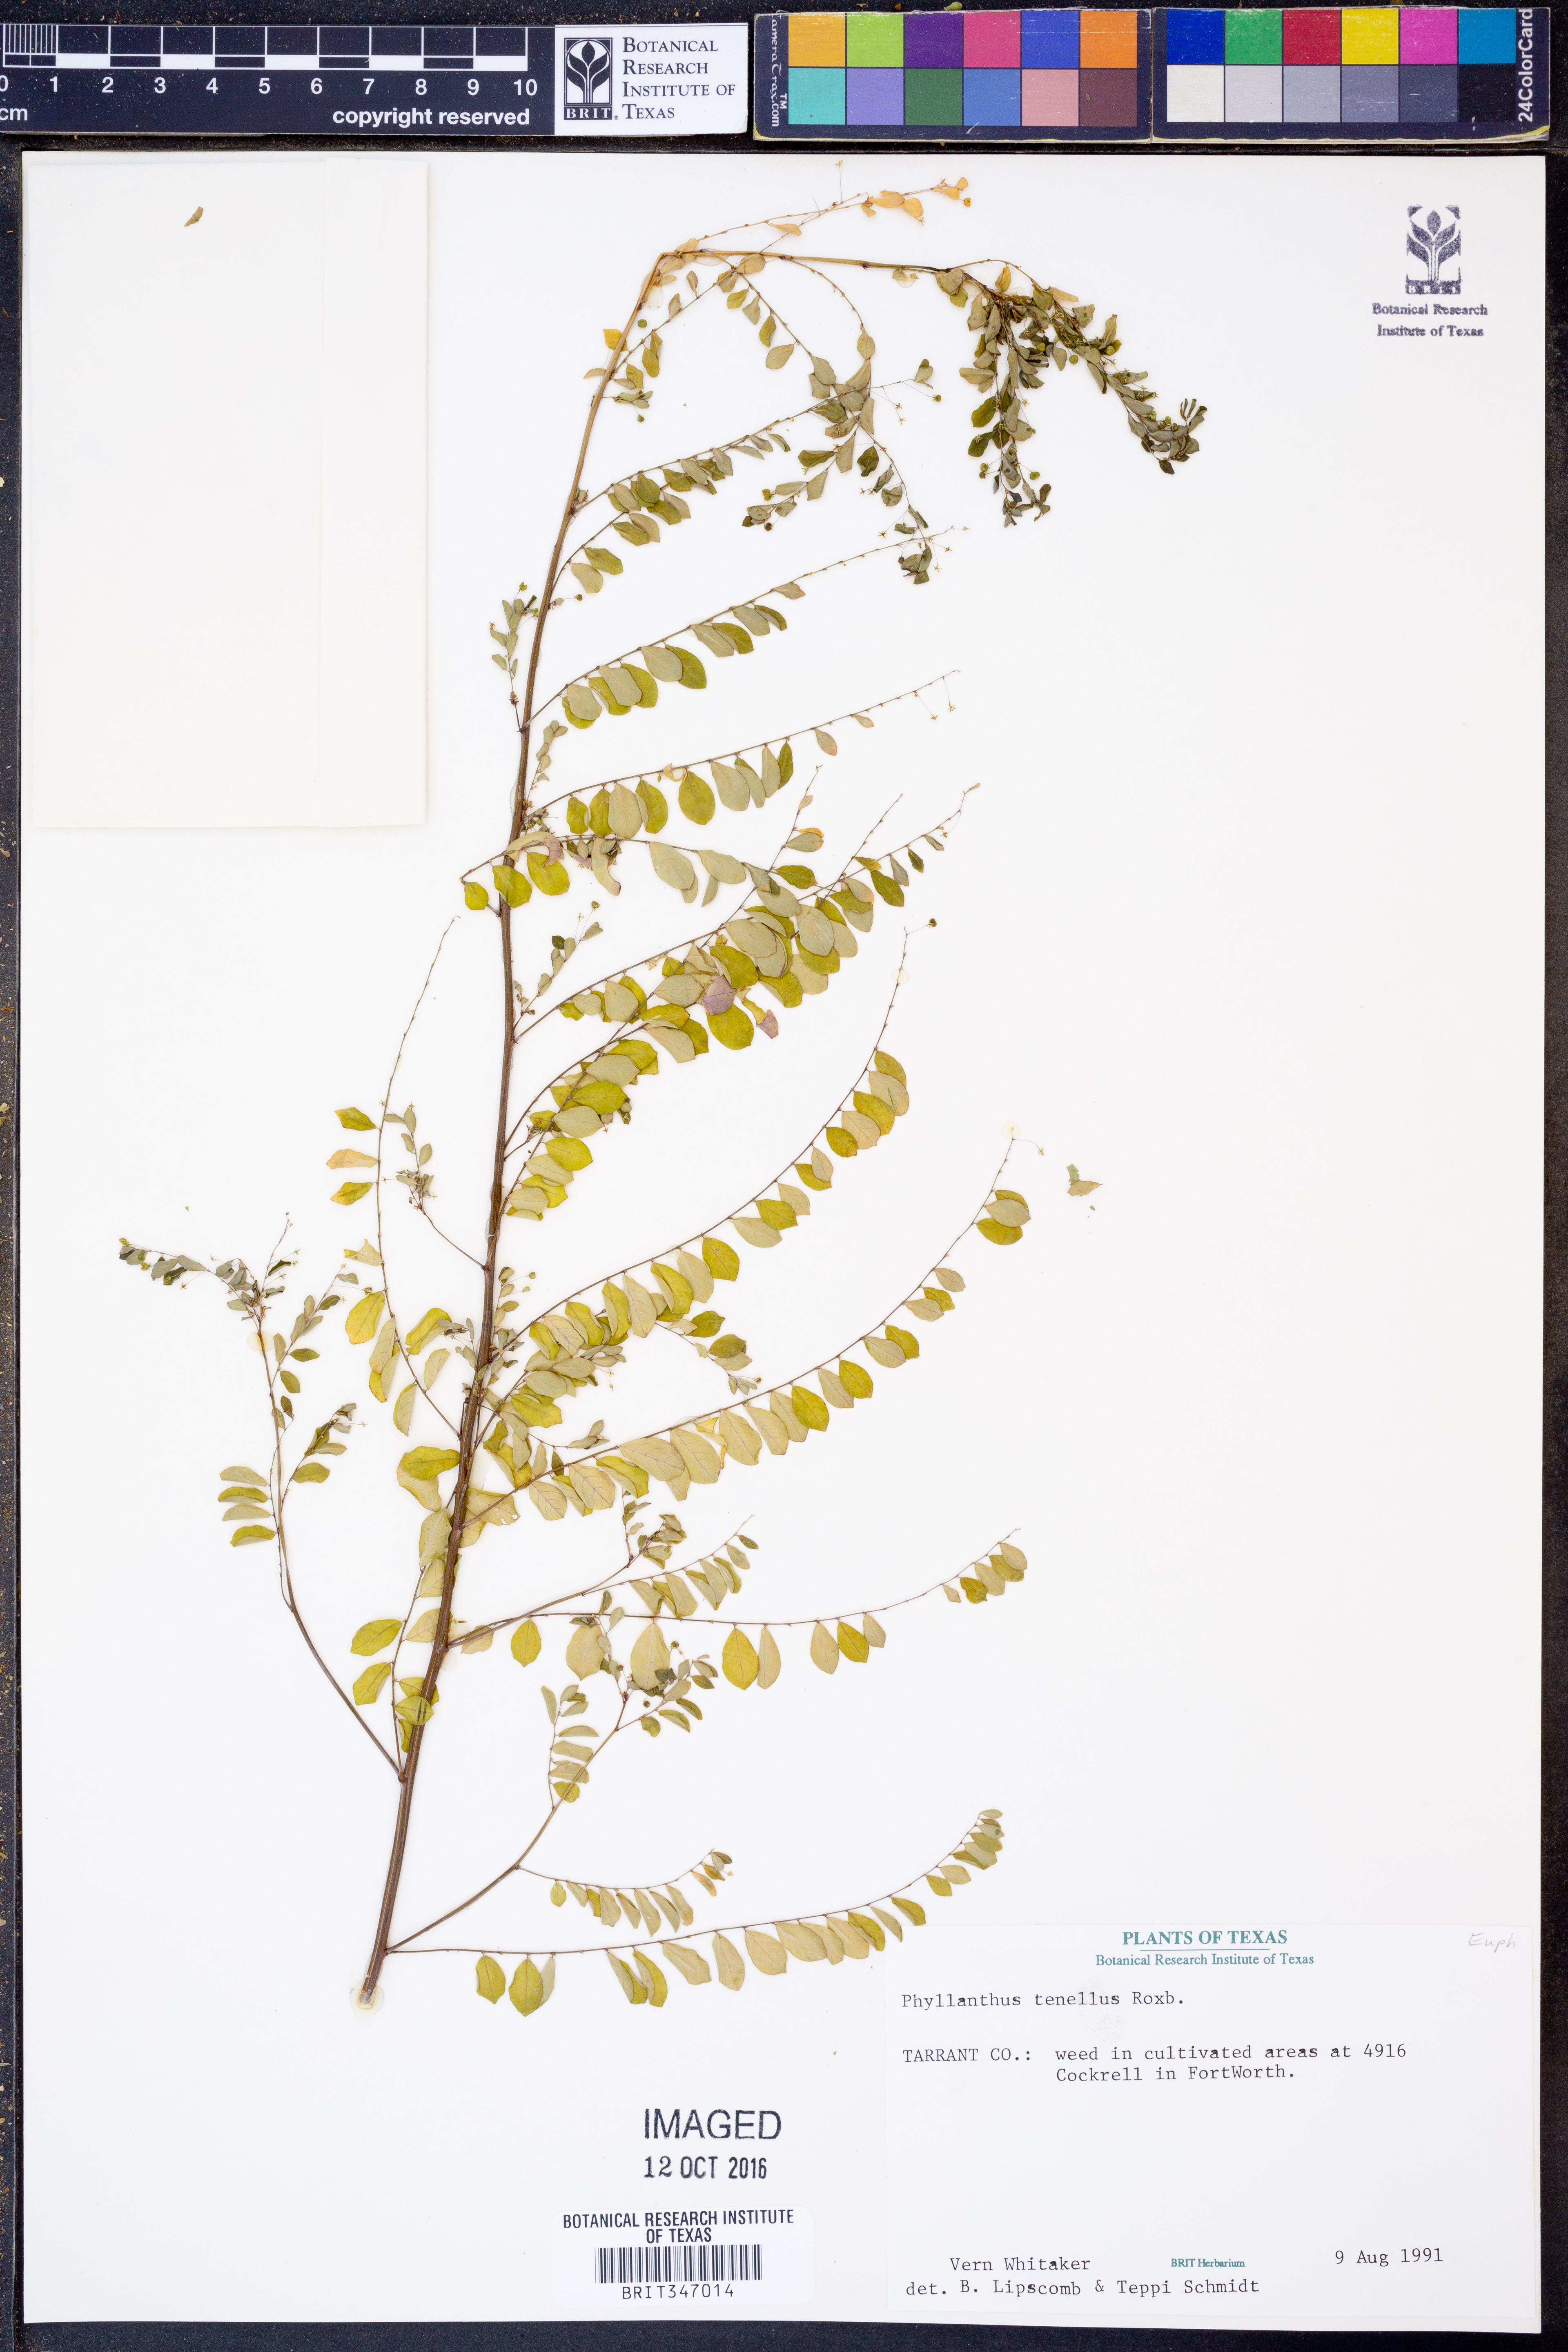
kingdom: Plantae
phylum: Tracheophyta
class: Magnoliopsida
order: Malpighiales
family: Phyllanthaceae
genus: Phyllanthus
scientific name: Phyllanthus tenellus
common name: Mascarene island leaf-flower
